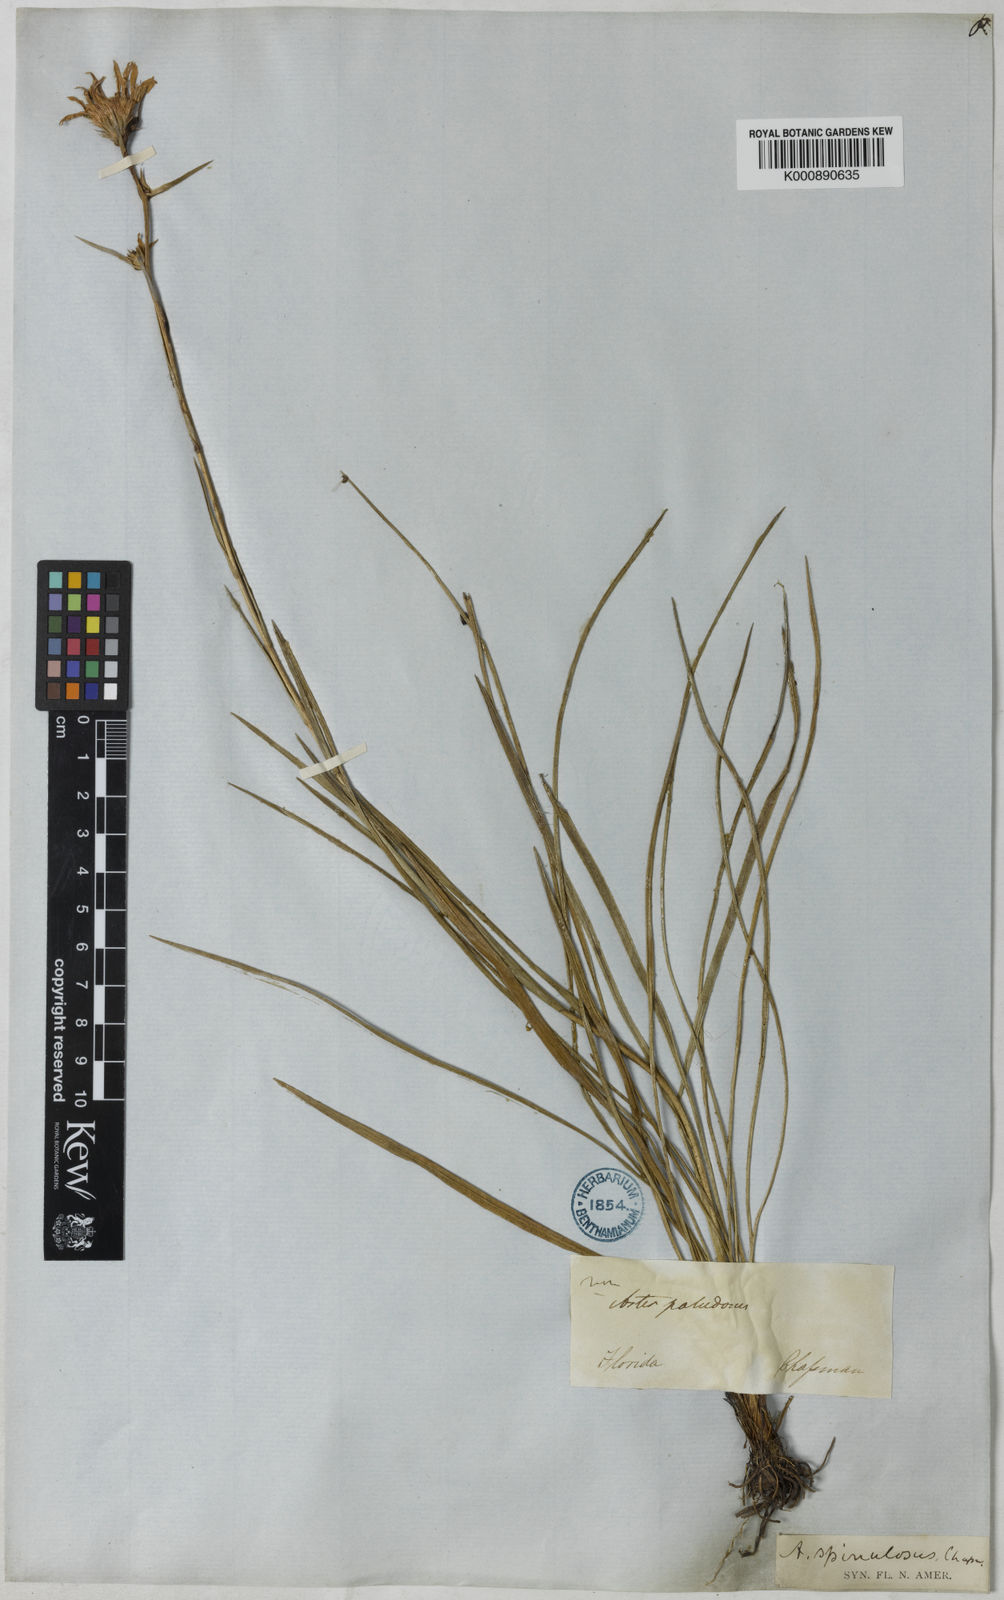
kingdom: Plantae
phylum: Tracheophyta
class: Magnoliopsida
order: Asterales
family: Asteraceae
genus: Eurybia
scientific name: Eurybia spinulosa
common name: Apalachicola aster
